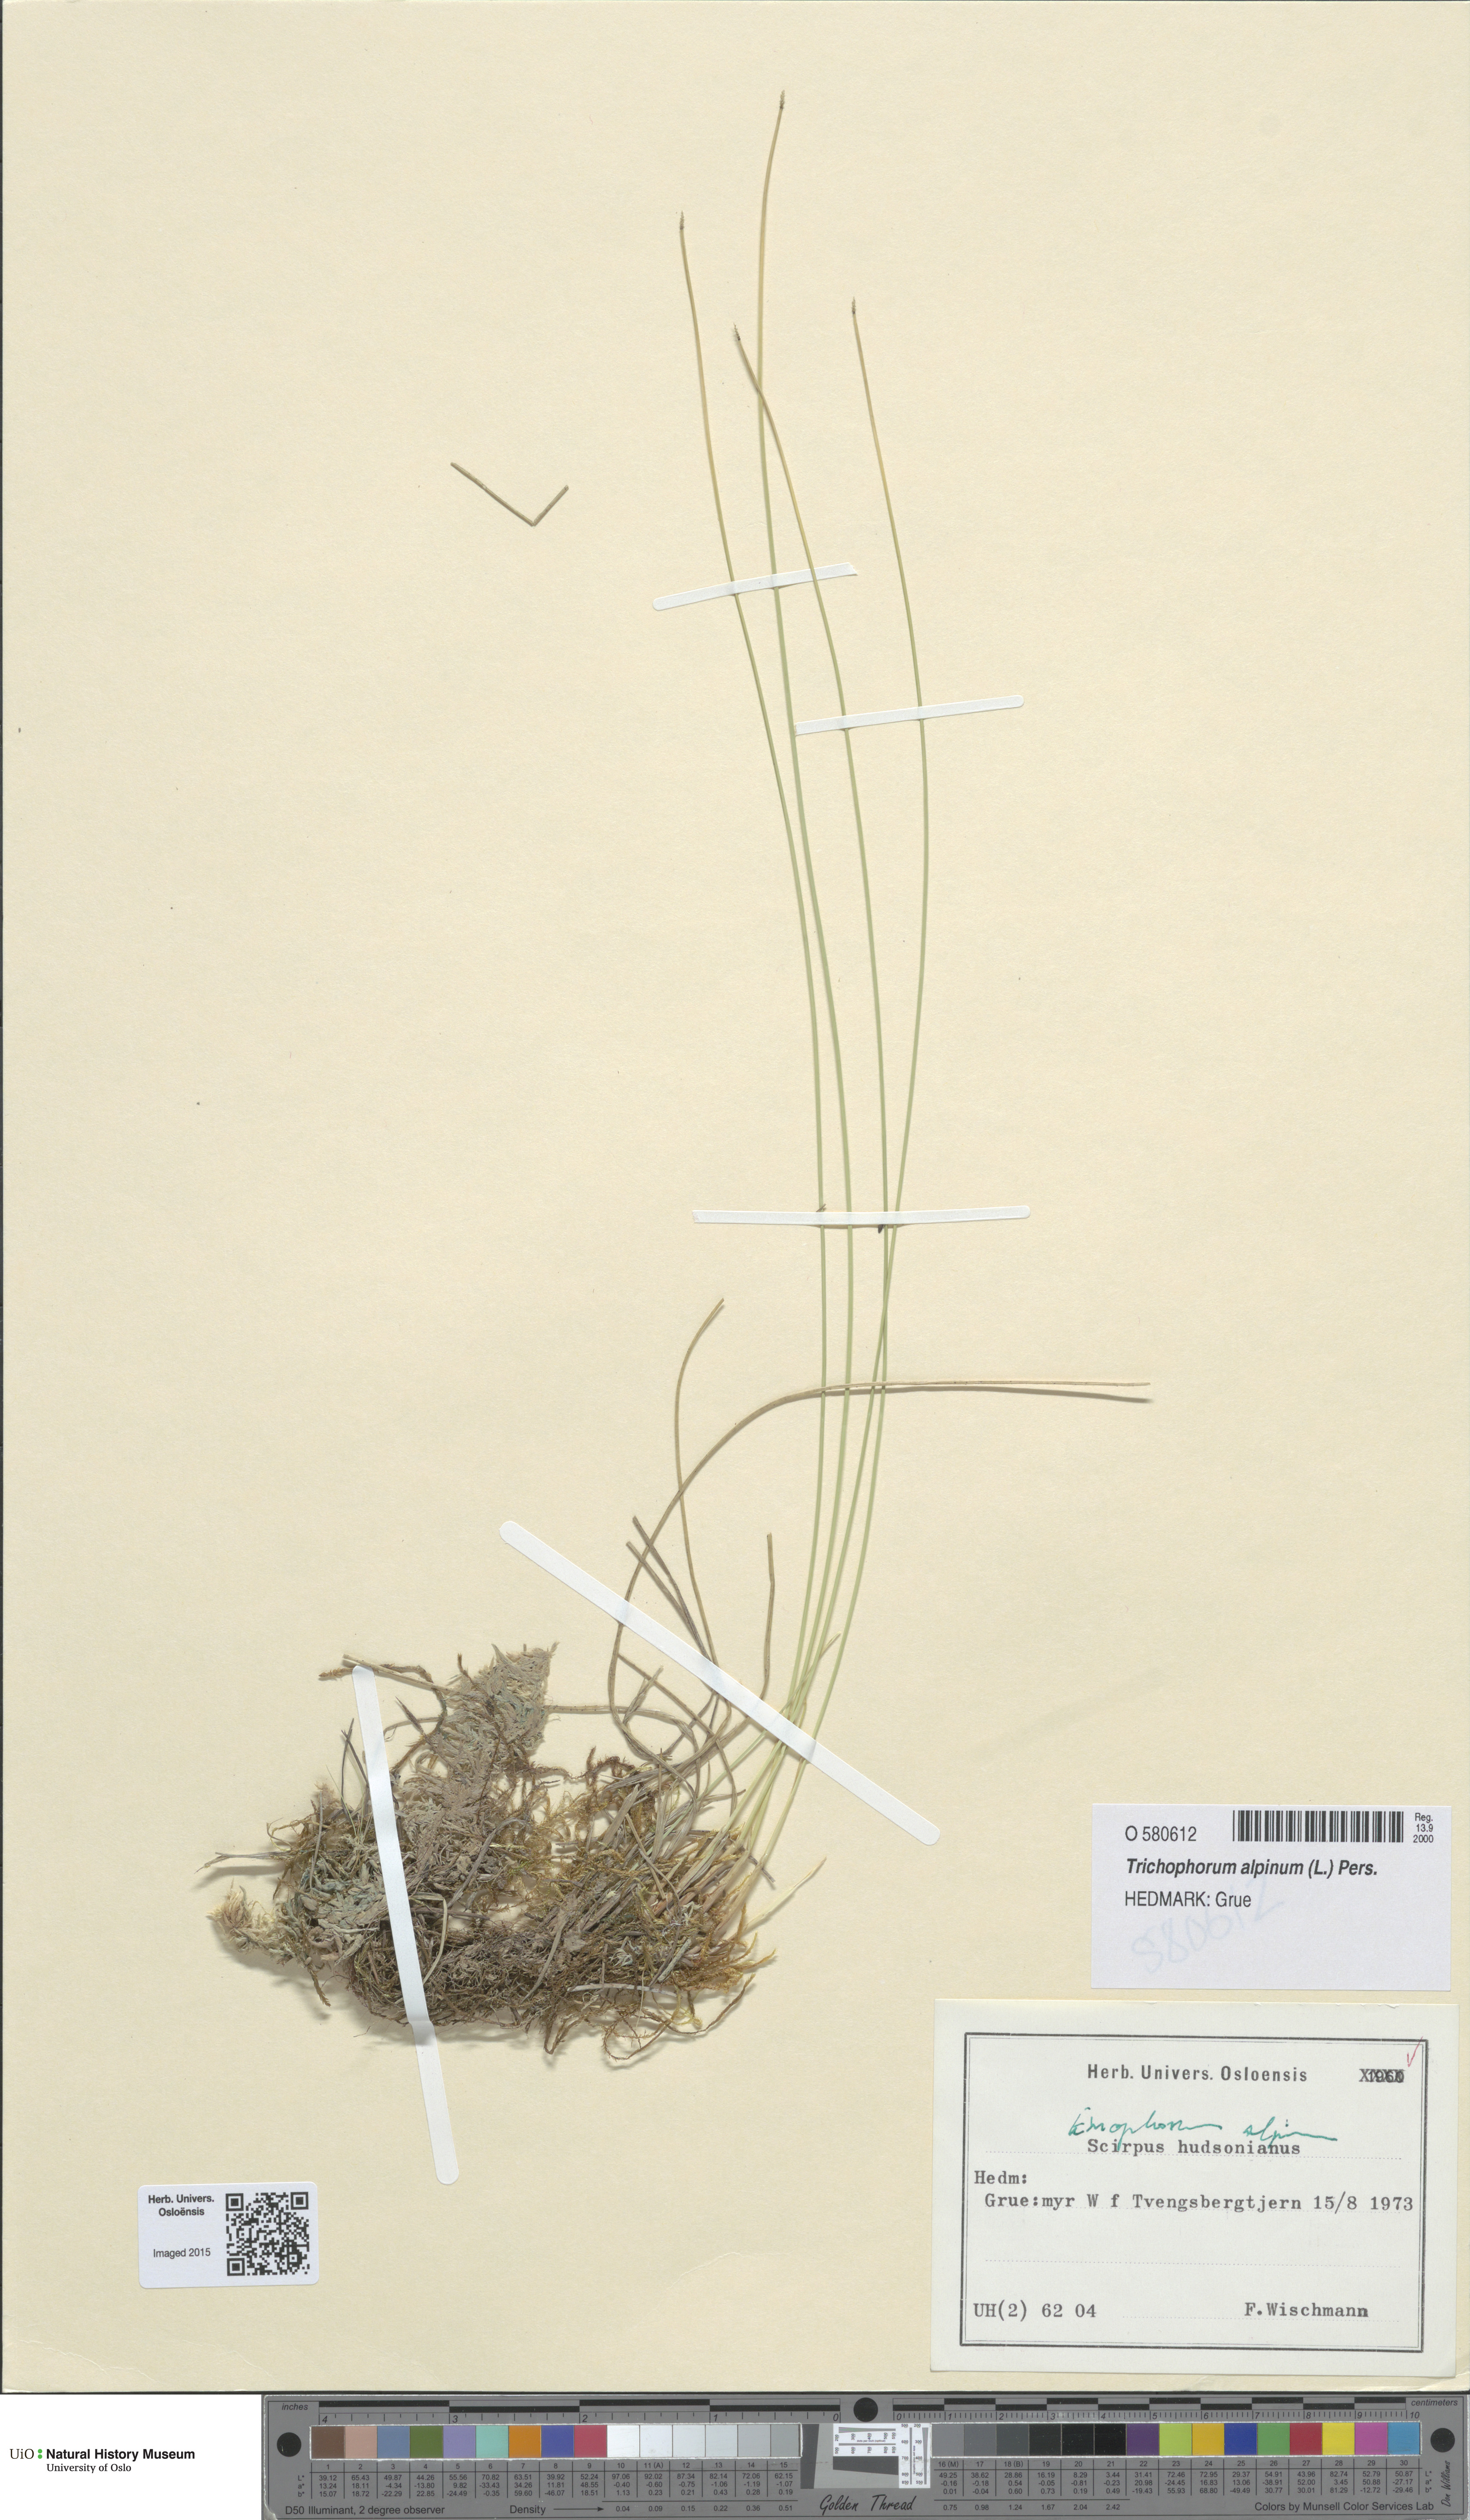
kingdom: Plantae
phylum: Tracheophyta
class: Liliopsida
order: Poales
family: Cyperaceae
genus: Trichophorum
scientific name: Trichophorum alpinum
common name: Alpine bulrush
